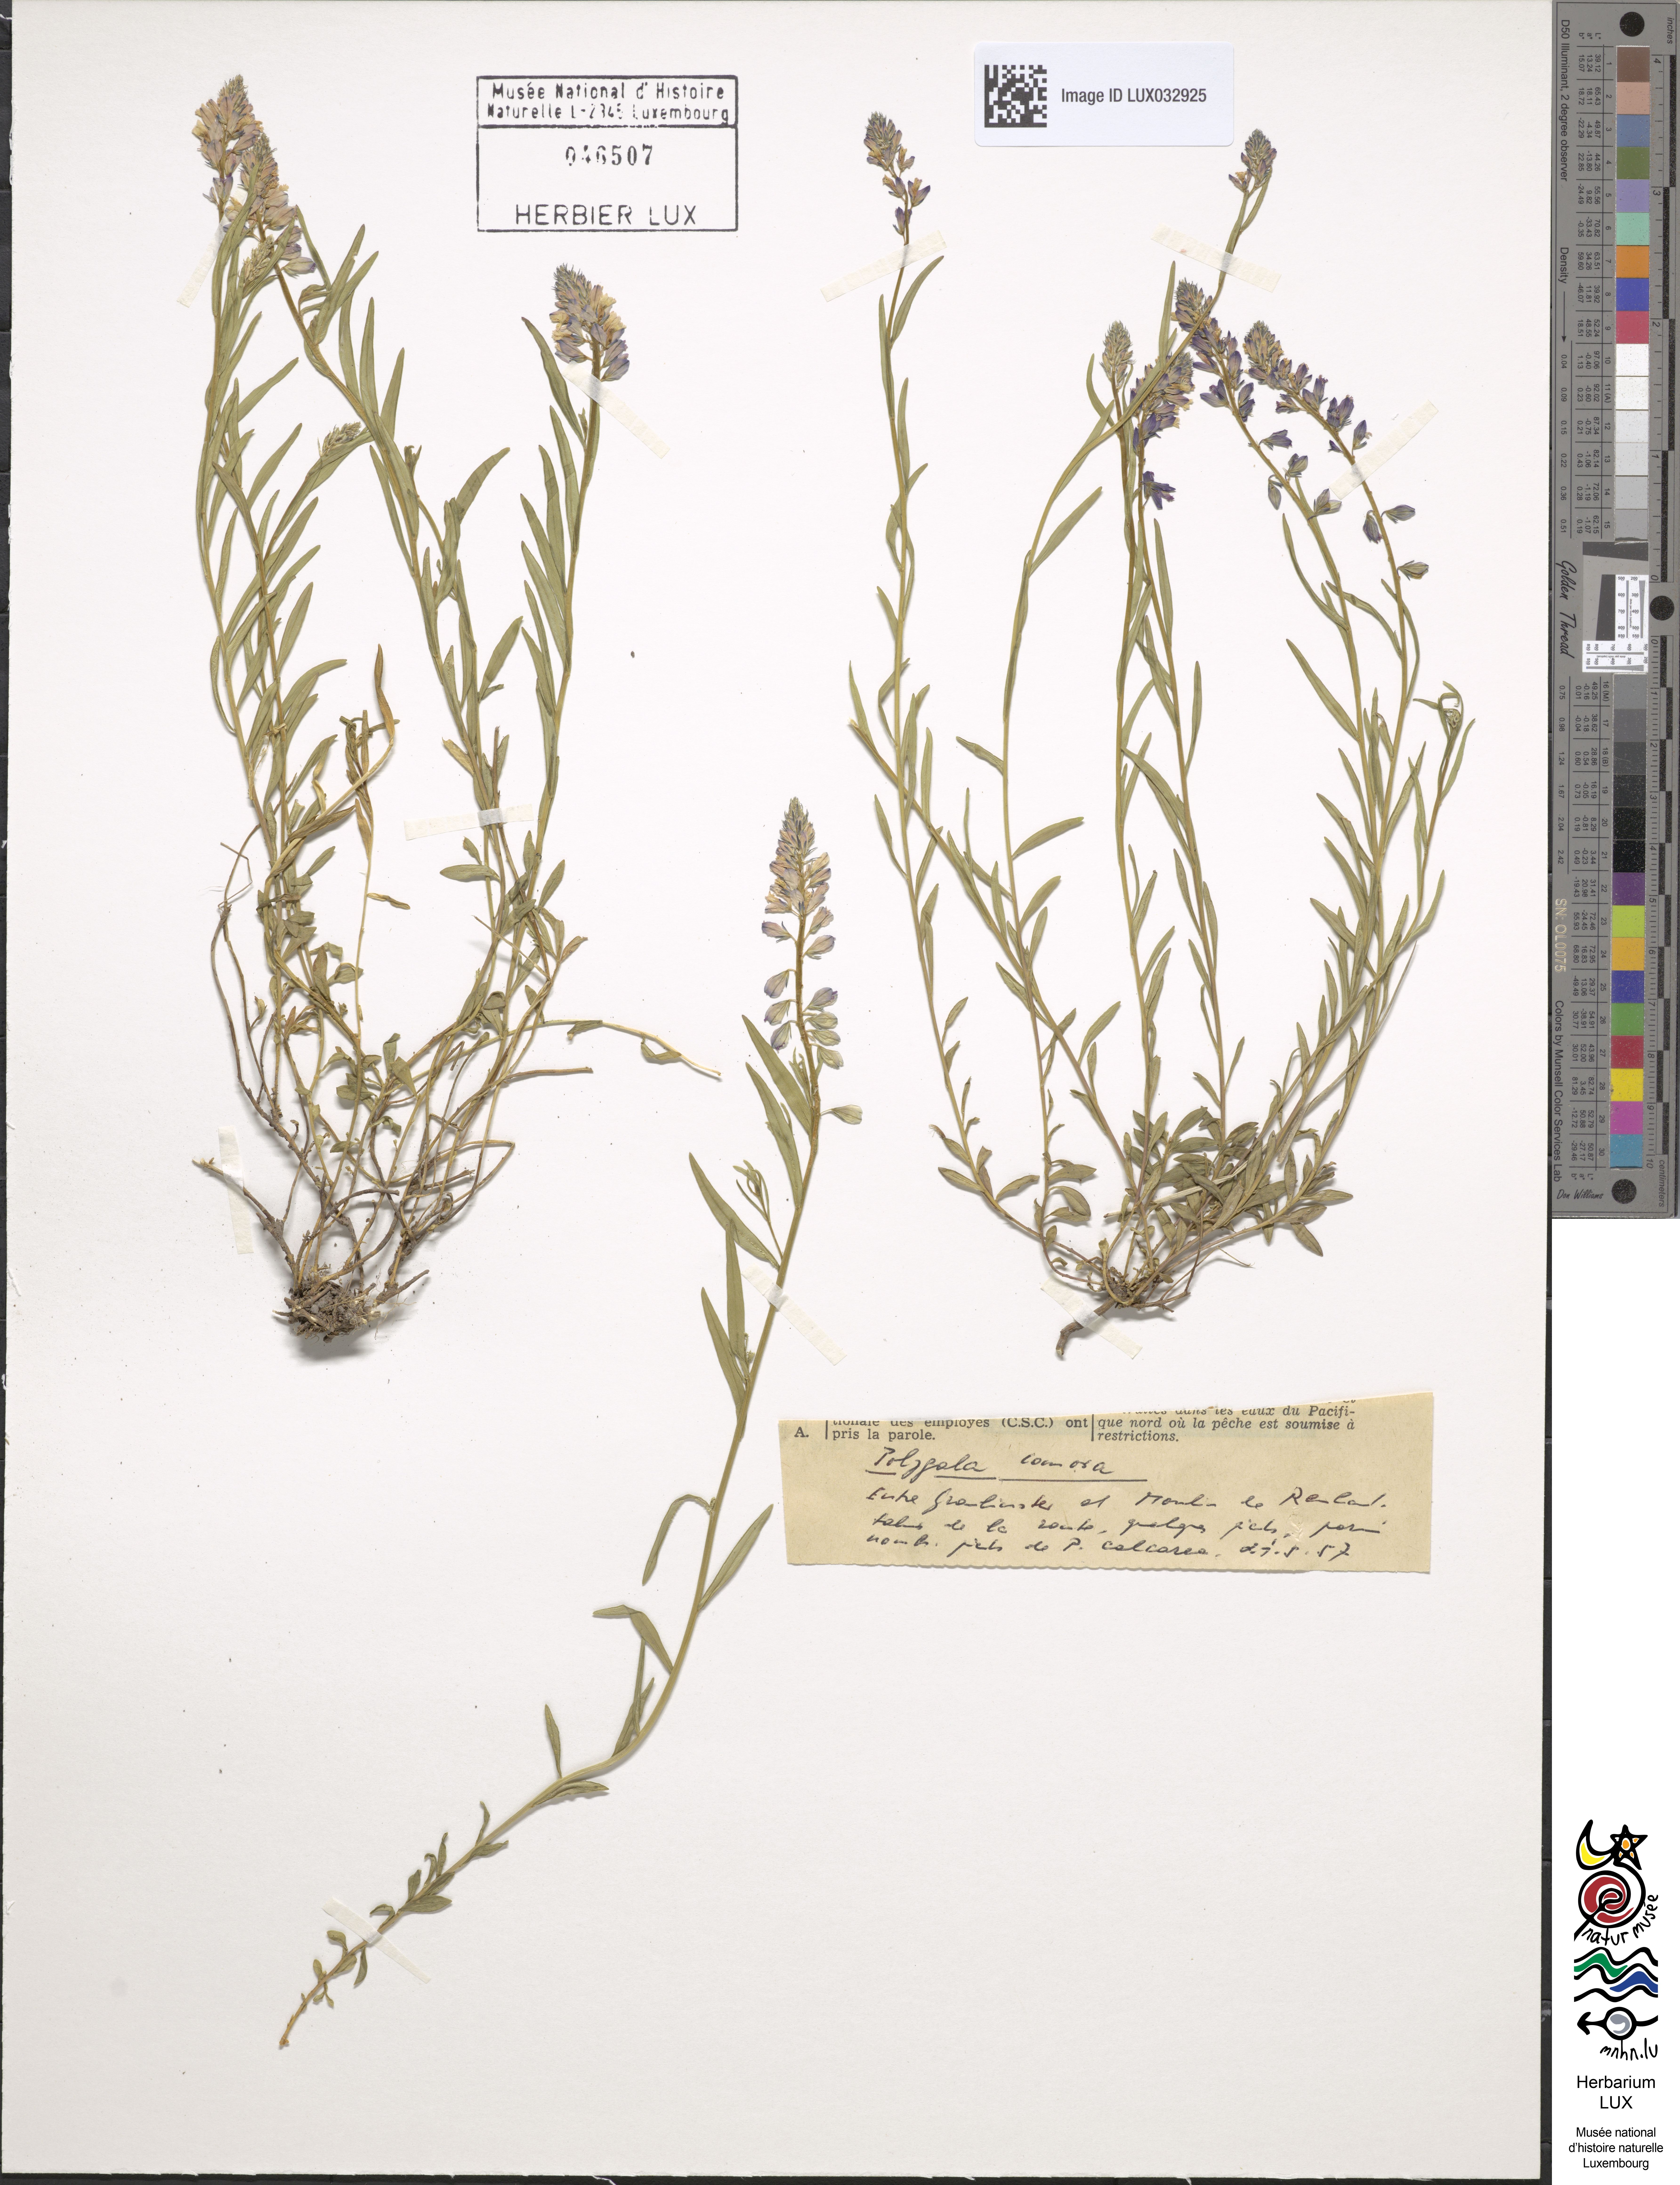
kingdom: Plantae
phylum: Tracheophyta
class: Magnoliopsida
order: Fabales
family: Polygalaceae
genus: Polygala
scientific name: Polygala comosa
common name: Tufted milkwort
